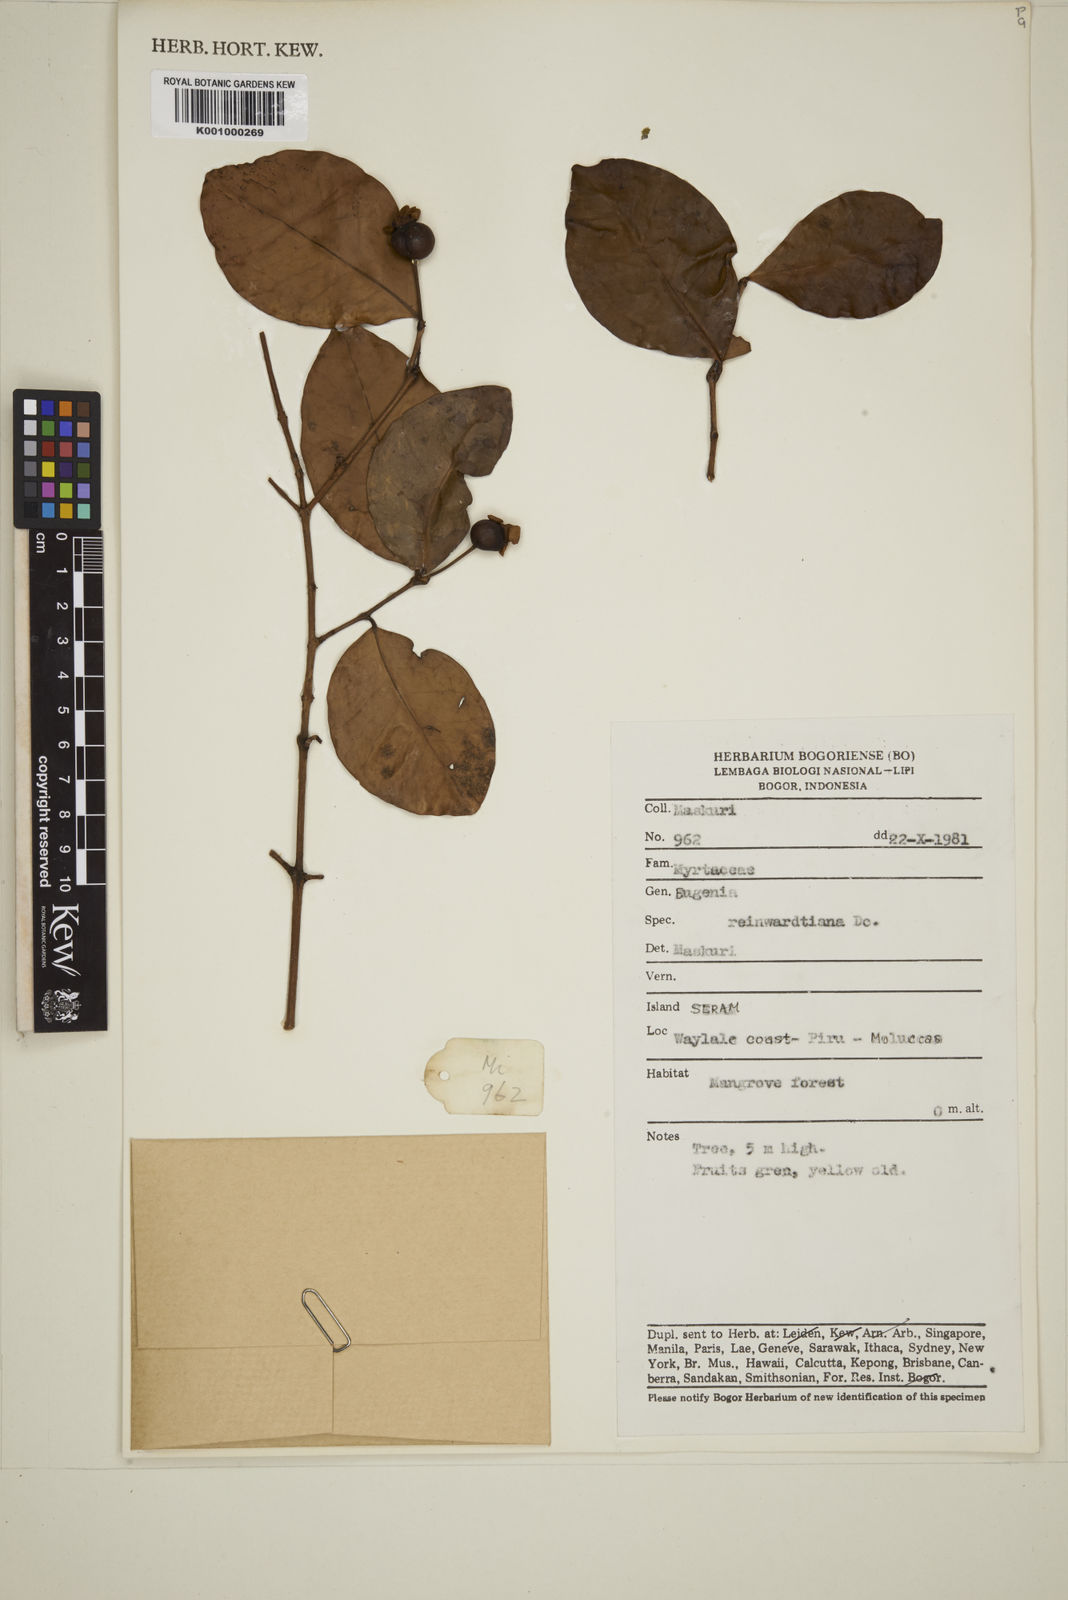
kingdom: Plantae
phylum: Tracheophyta
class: Magnoliopsida
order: Myrtales
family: Myrtaceae
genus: Eugenia
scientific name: Eugenia reinwardtiana
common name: Cedar bay-cherry
